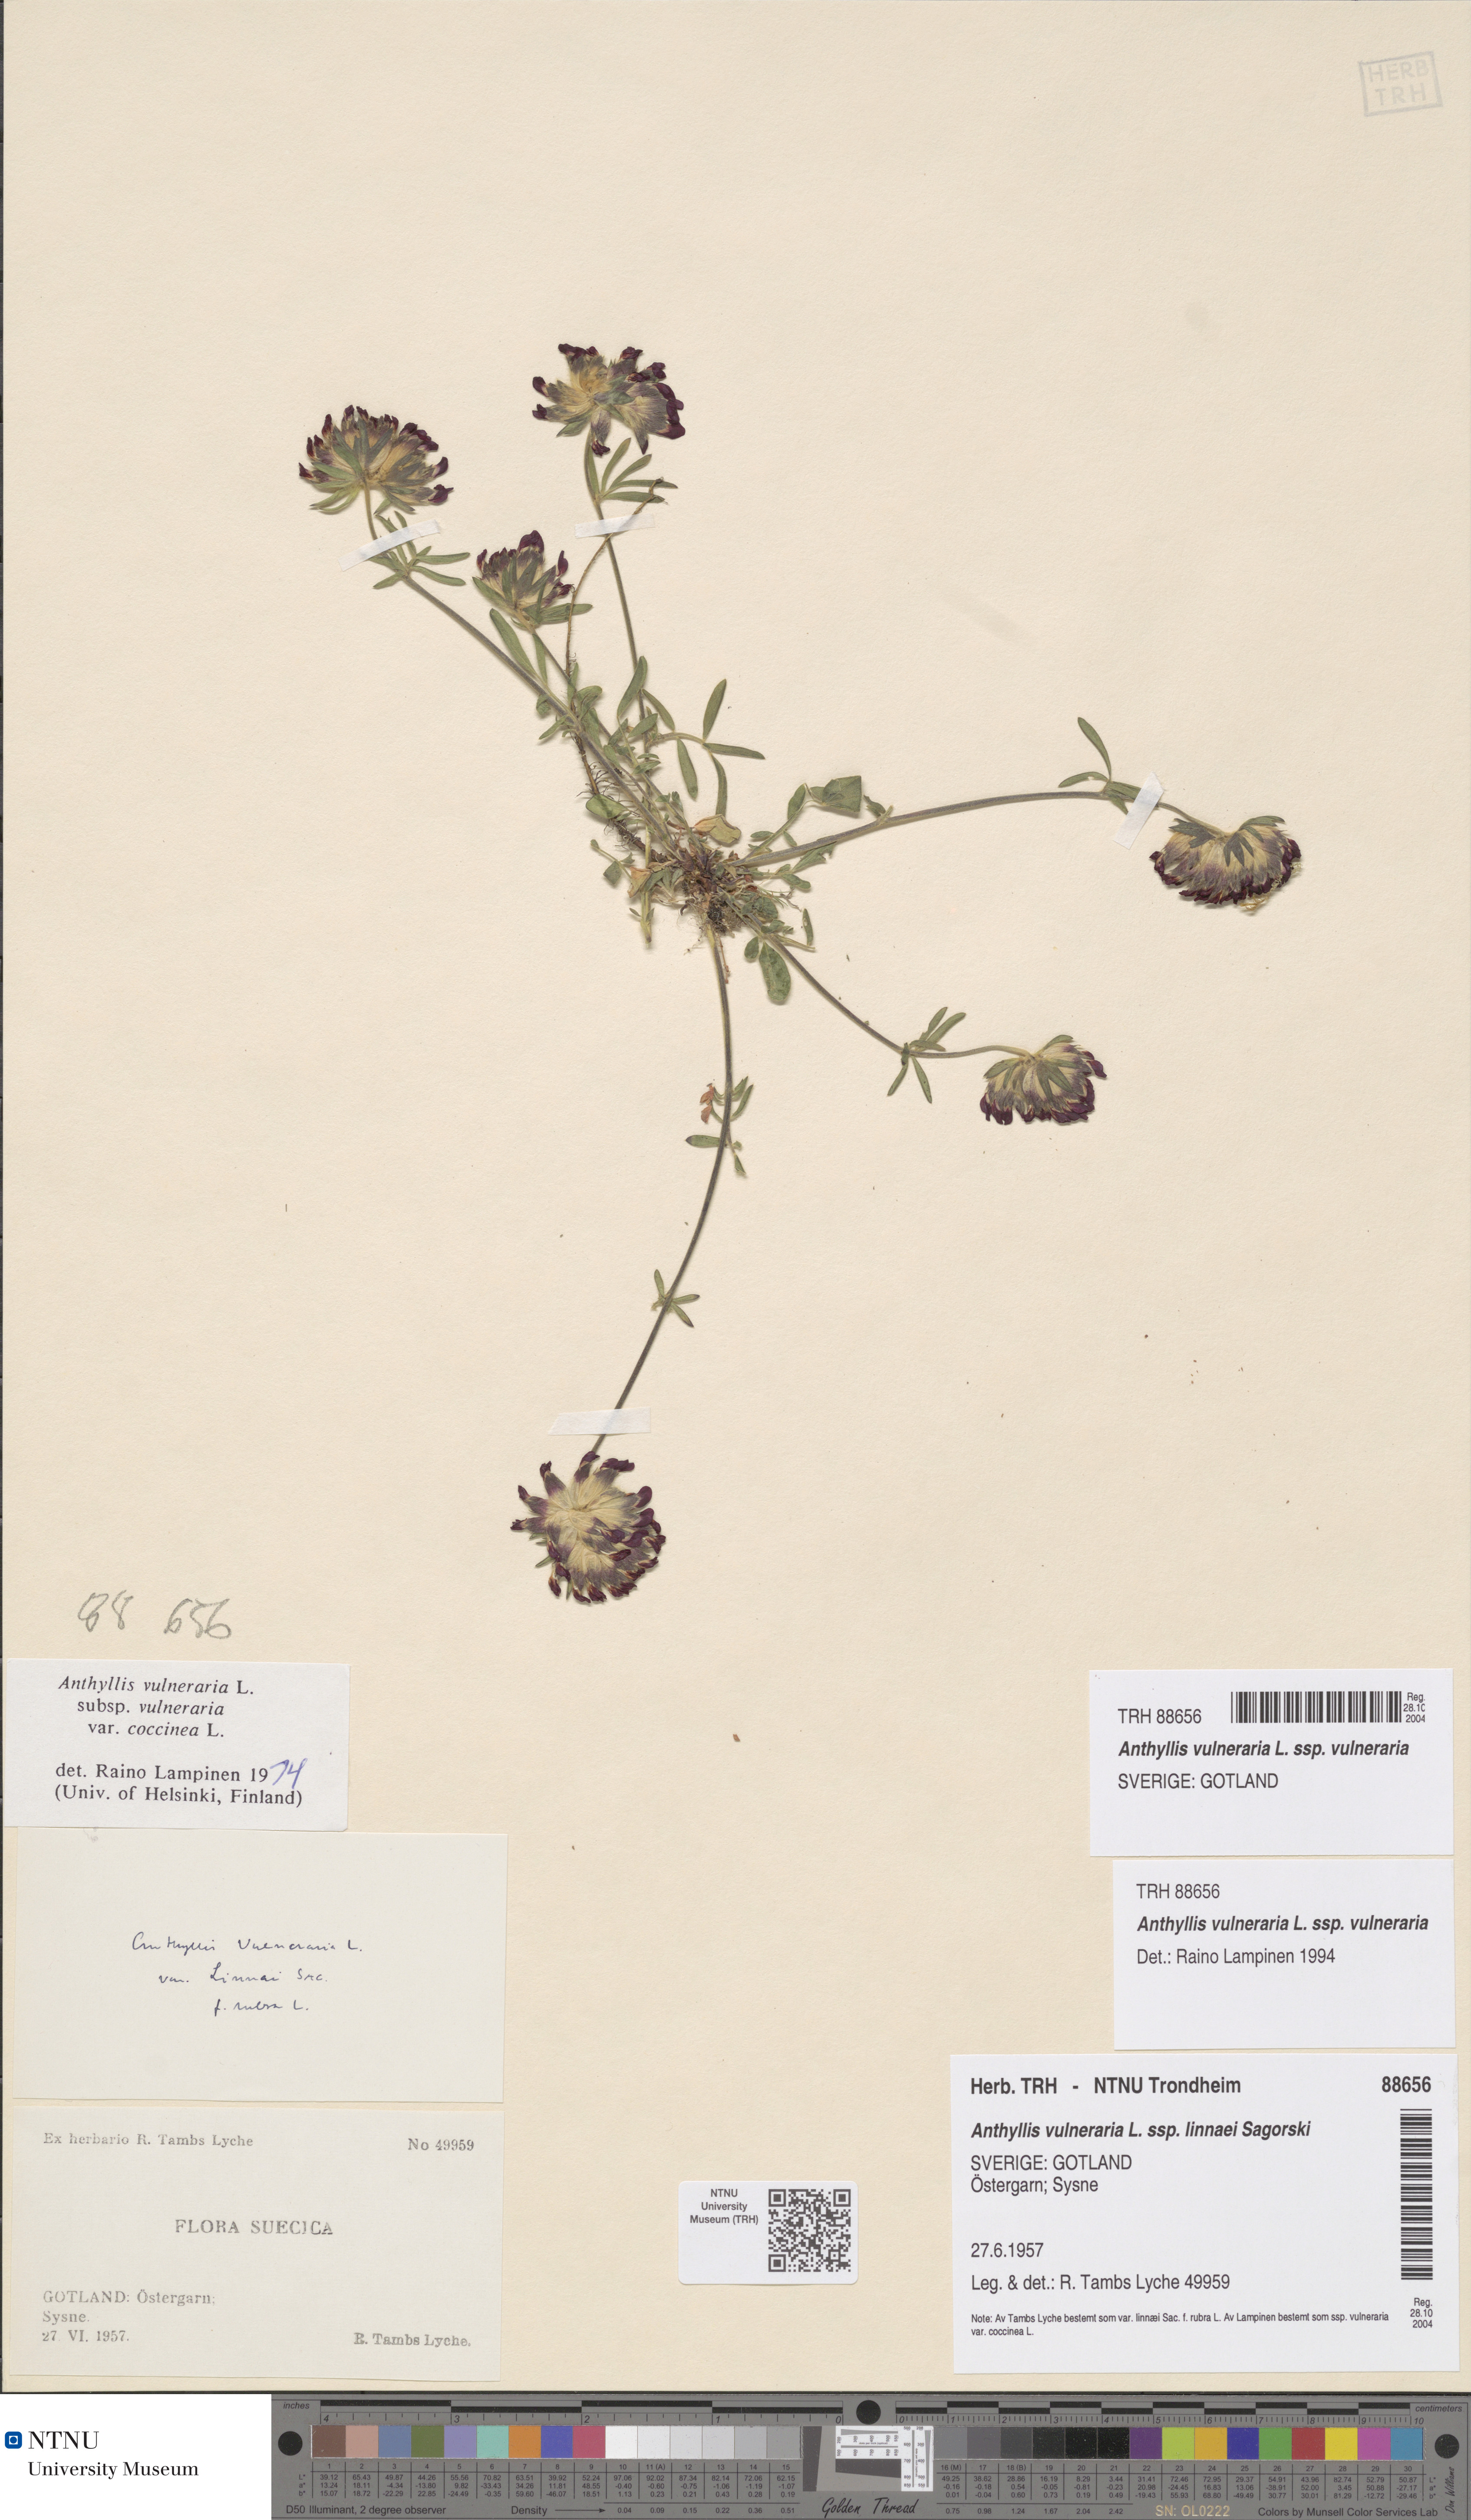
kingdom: Plantae
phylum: Tracheophyta
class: Magnoliopsida
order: Fabales
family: Fabaceae
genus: Anthyllis
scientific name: Anthyllis vulneraria
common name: Kidney vetch
